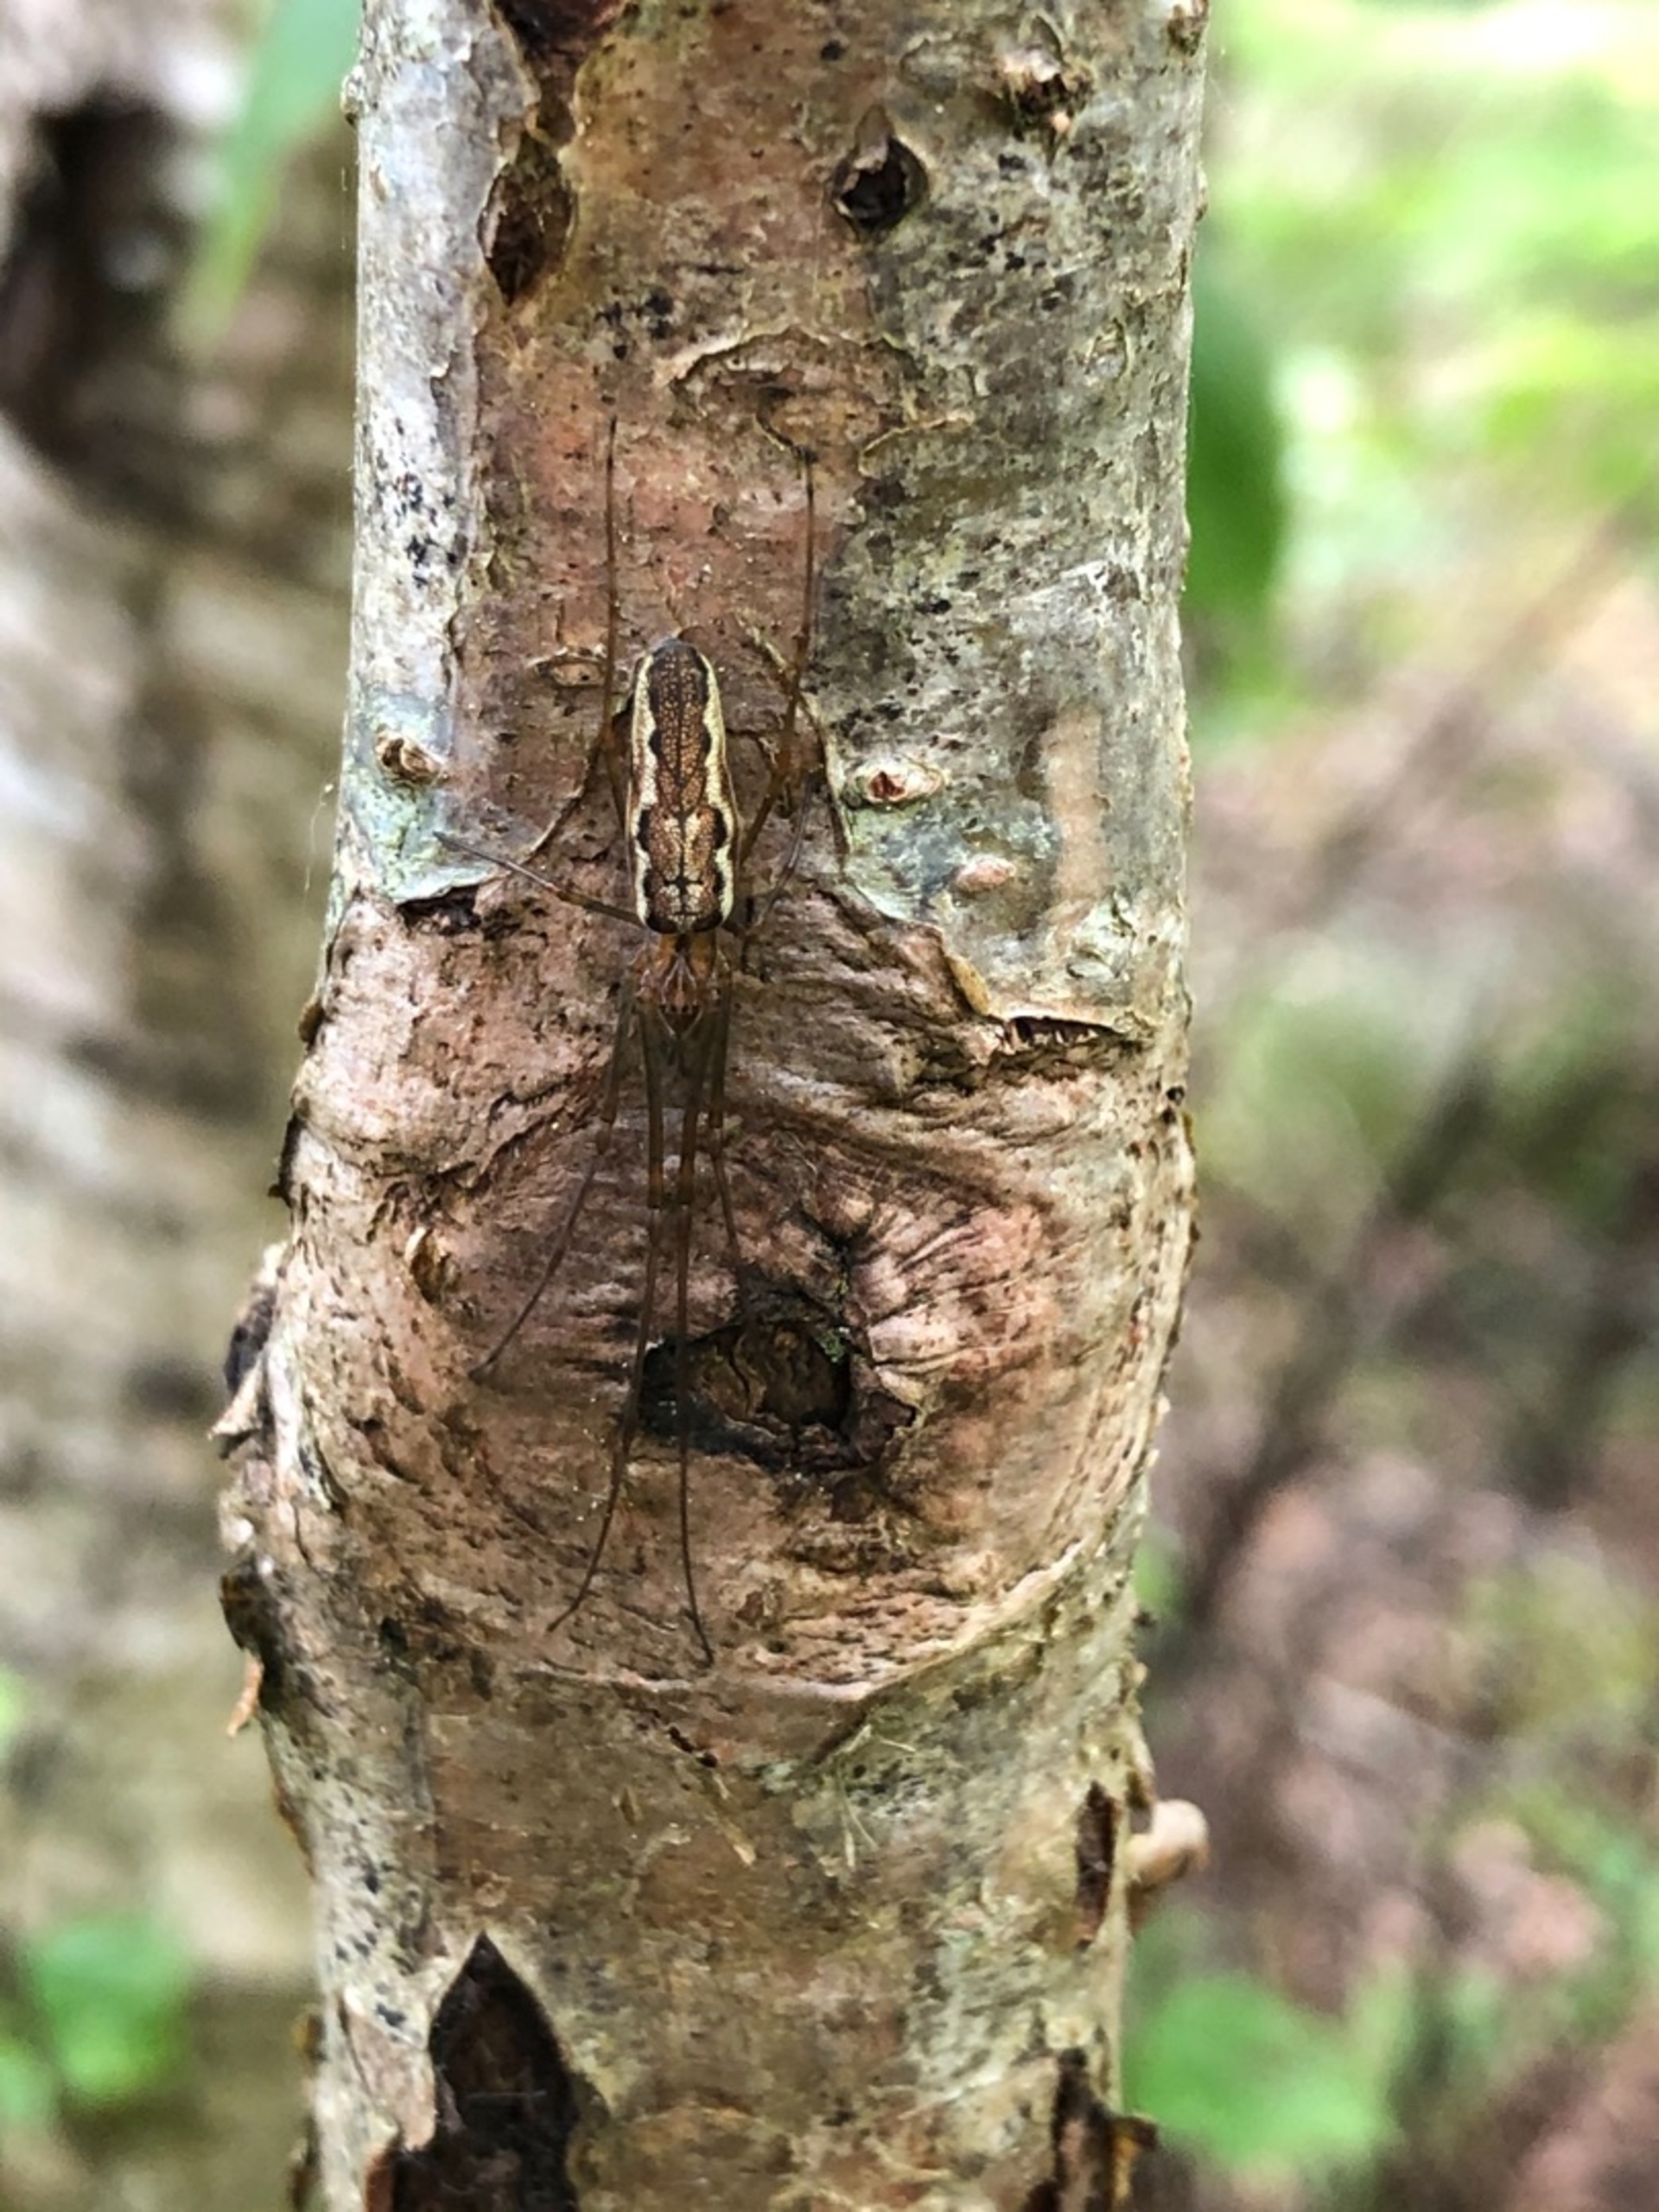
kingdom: Animalia
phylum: Arthropoda
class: Arachnida
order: Araneae
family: Tetragnathidae
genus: Tetragnatha
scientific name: Tetragnatha
